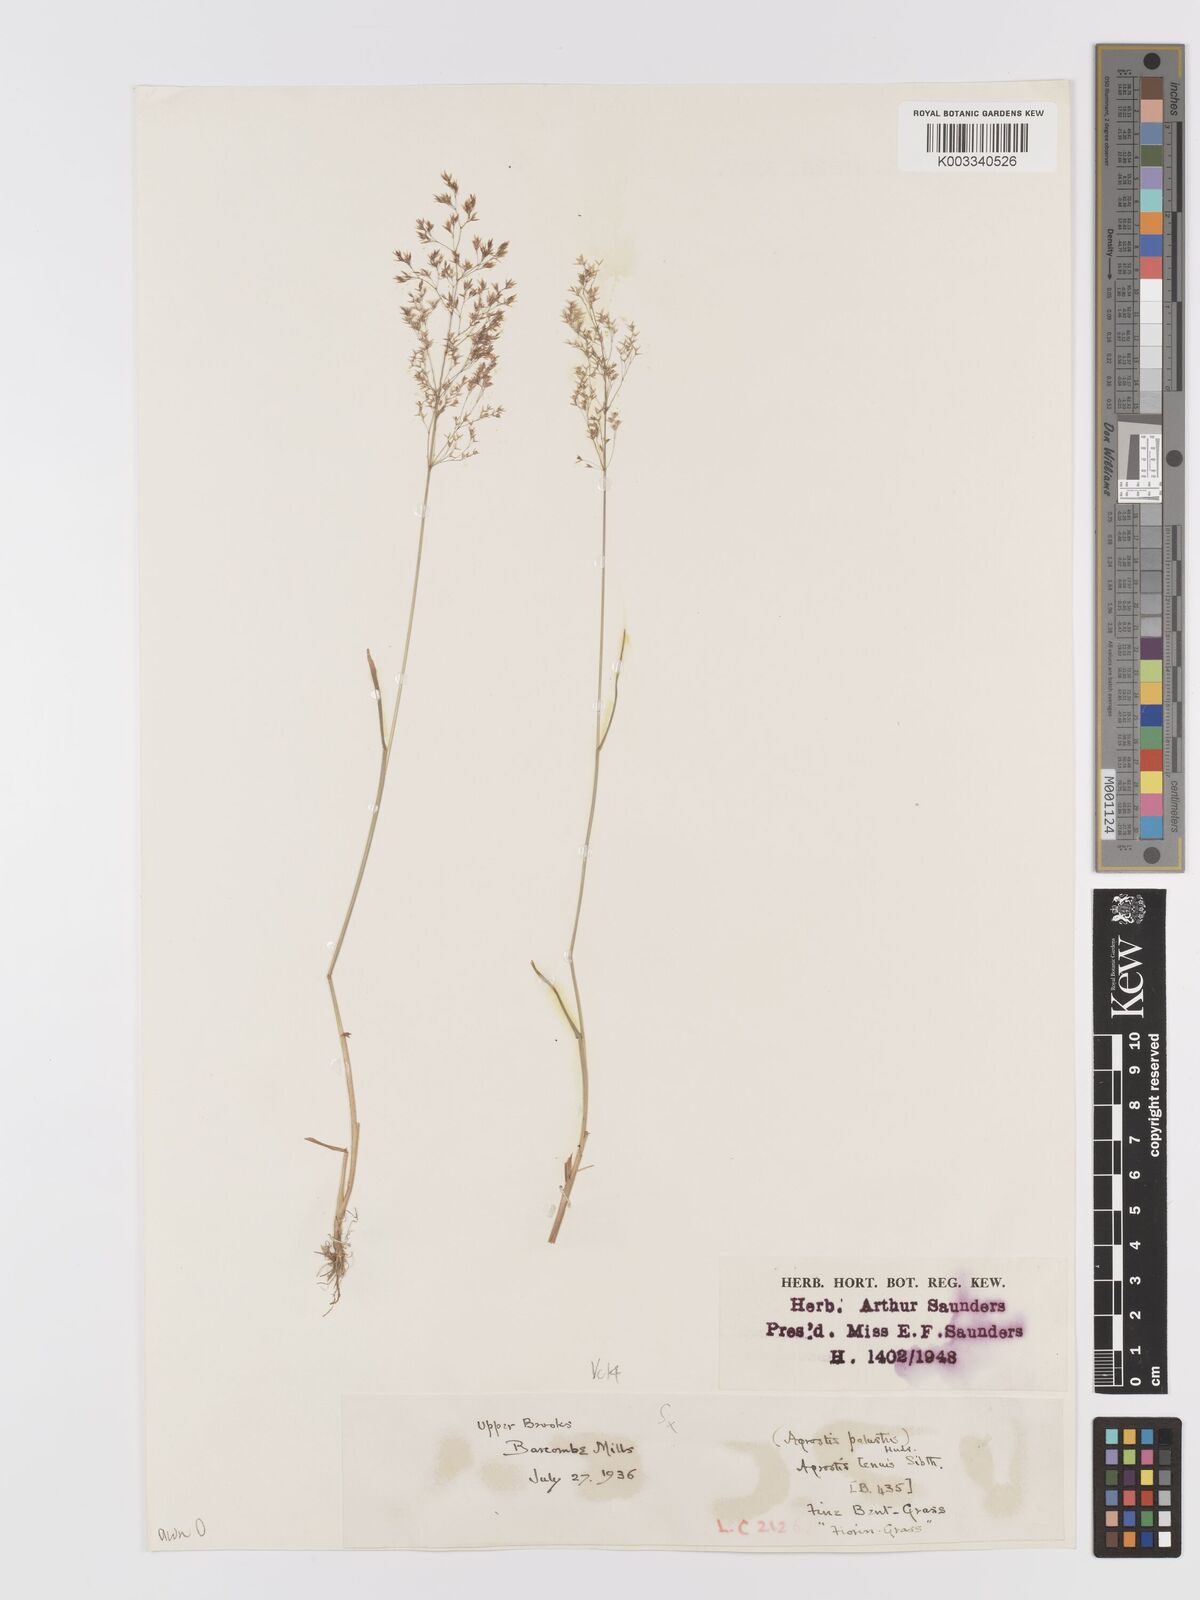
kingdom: Plantae
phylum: Tracheophyta
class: Liliopsida
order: Poales
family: Poaceae
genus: Agrostis
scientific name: Agrostis capillaris
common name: Colonial bentgrass
